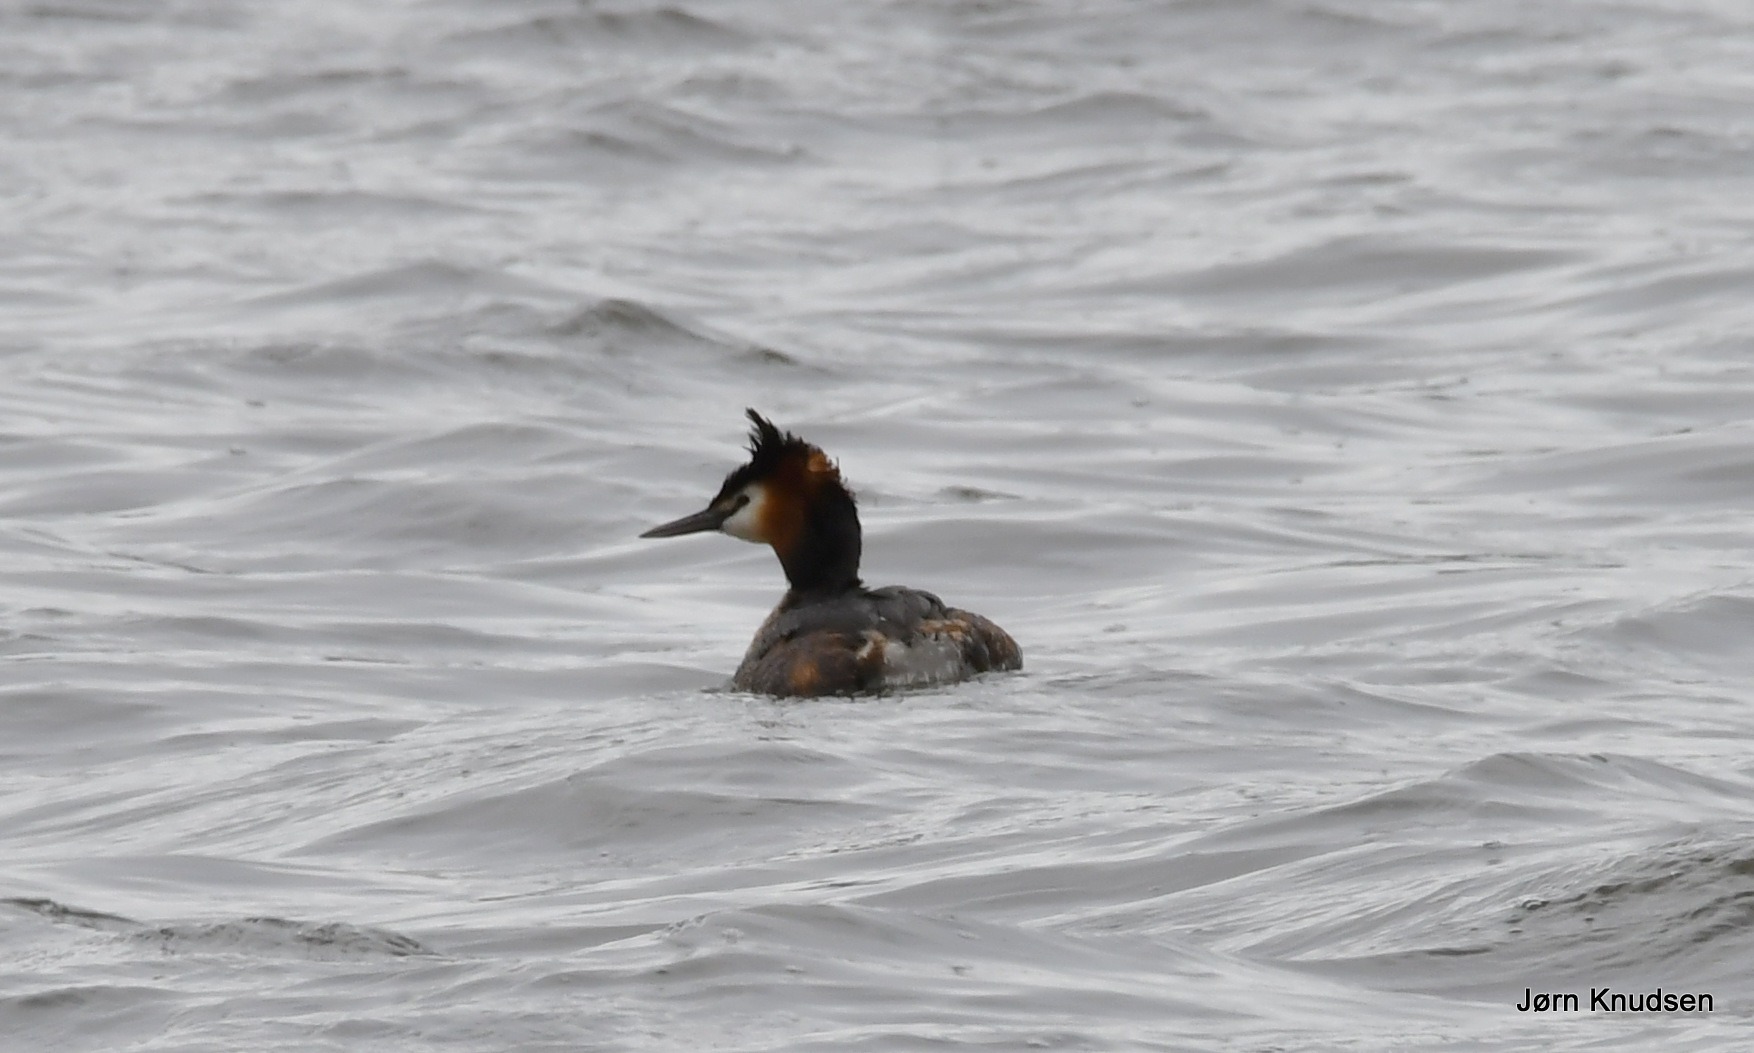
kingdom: Animalia
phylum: Chordata
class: Aves
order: Podicipediformes
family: Podicipedidae
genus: Podiceps
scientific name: Podiceps cristatus
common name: Toppet lappedykker
